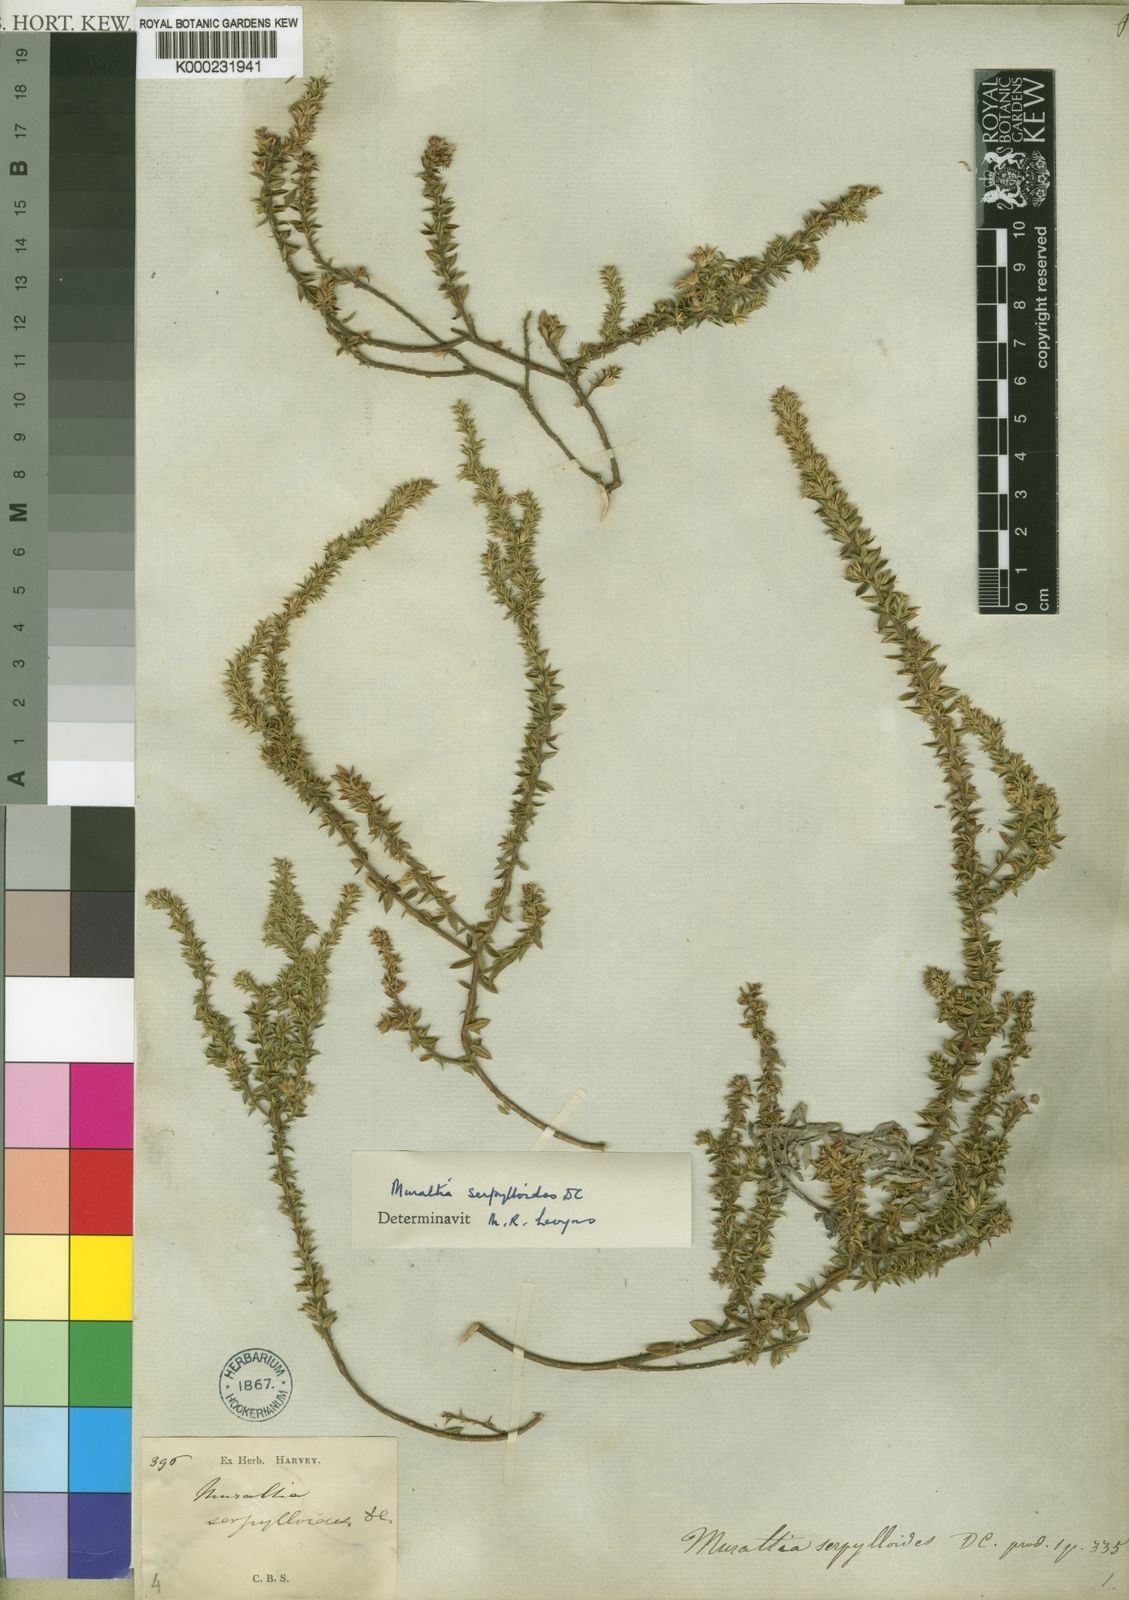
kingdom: Plantae
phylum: Tracheophyta
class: Magnoliopsida
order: Fabales
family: Polygalaceae
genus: Muraltia
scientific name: Muraltia serpylloides
